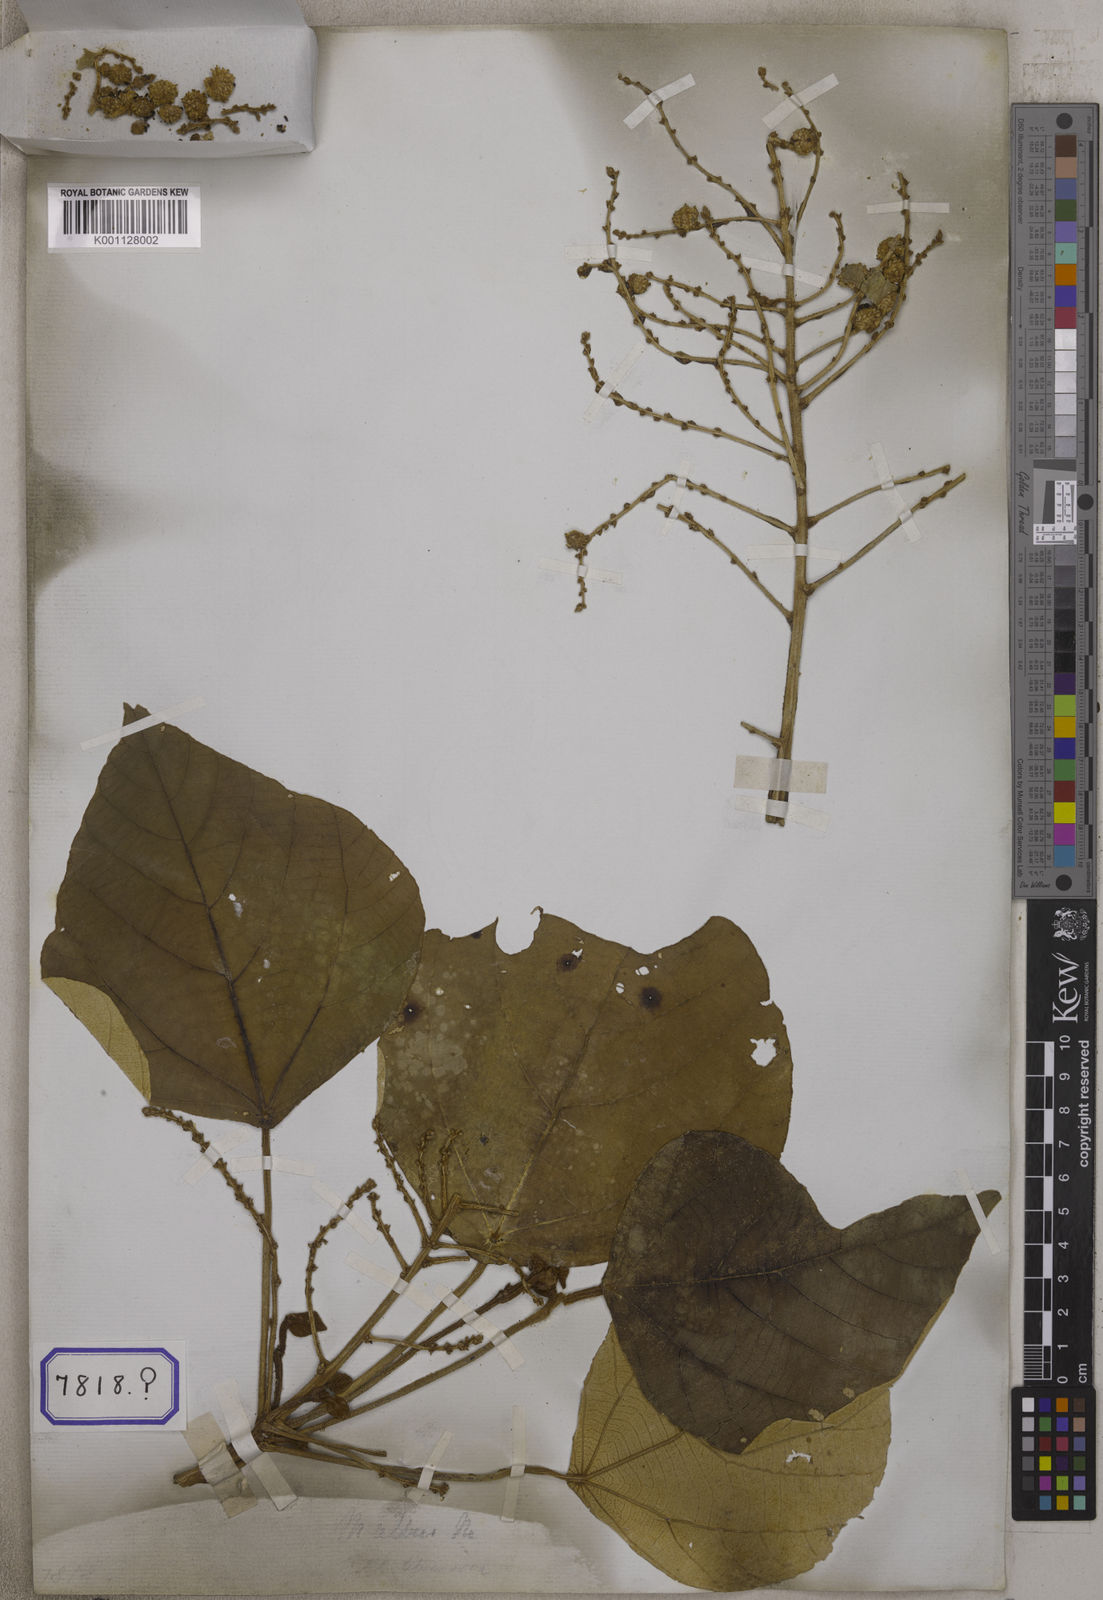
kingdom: Plantae
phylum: Tracheophyta
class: Magnoliopsida
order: Malpighiales
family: Euphorbiaceae
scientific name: Euphorbiaceae
